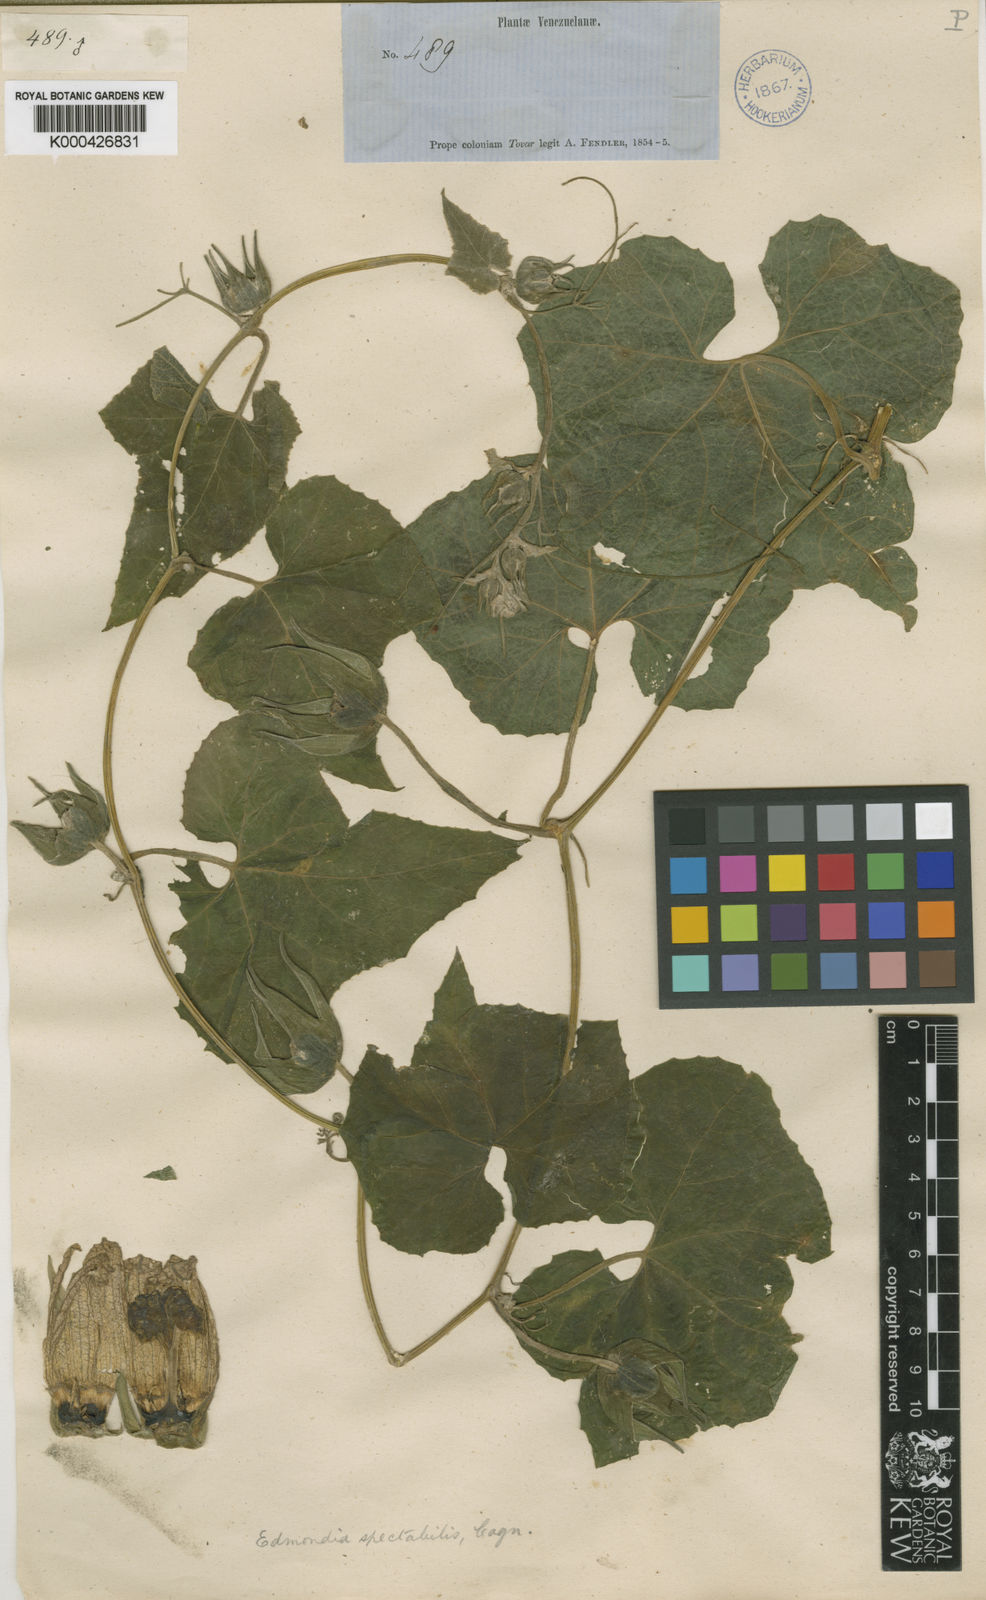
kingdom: Plantae
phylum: Tracheophyta
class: Magnoliopsida
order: Cucurbitales
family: Cucurbitaceae
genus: Calycophysum
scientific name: Calycophysum spectabile
